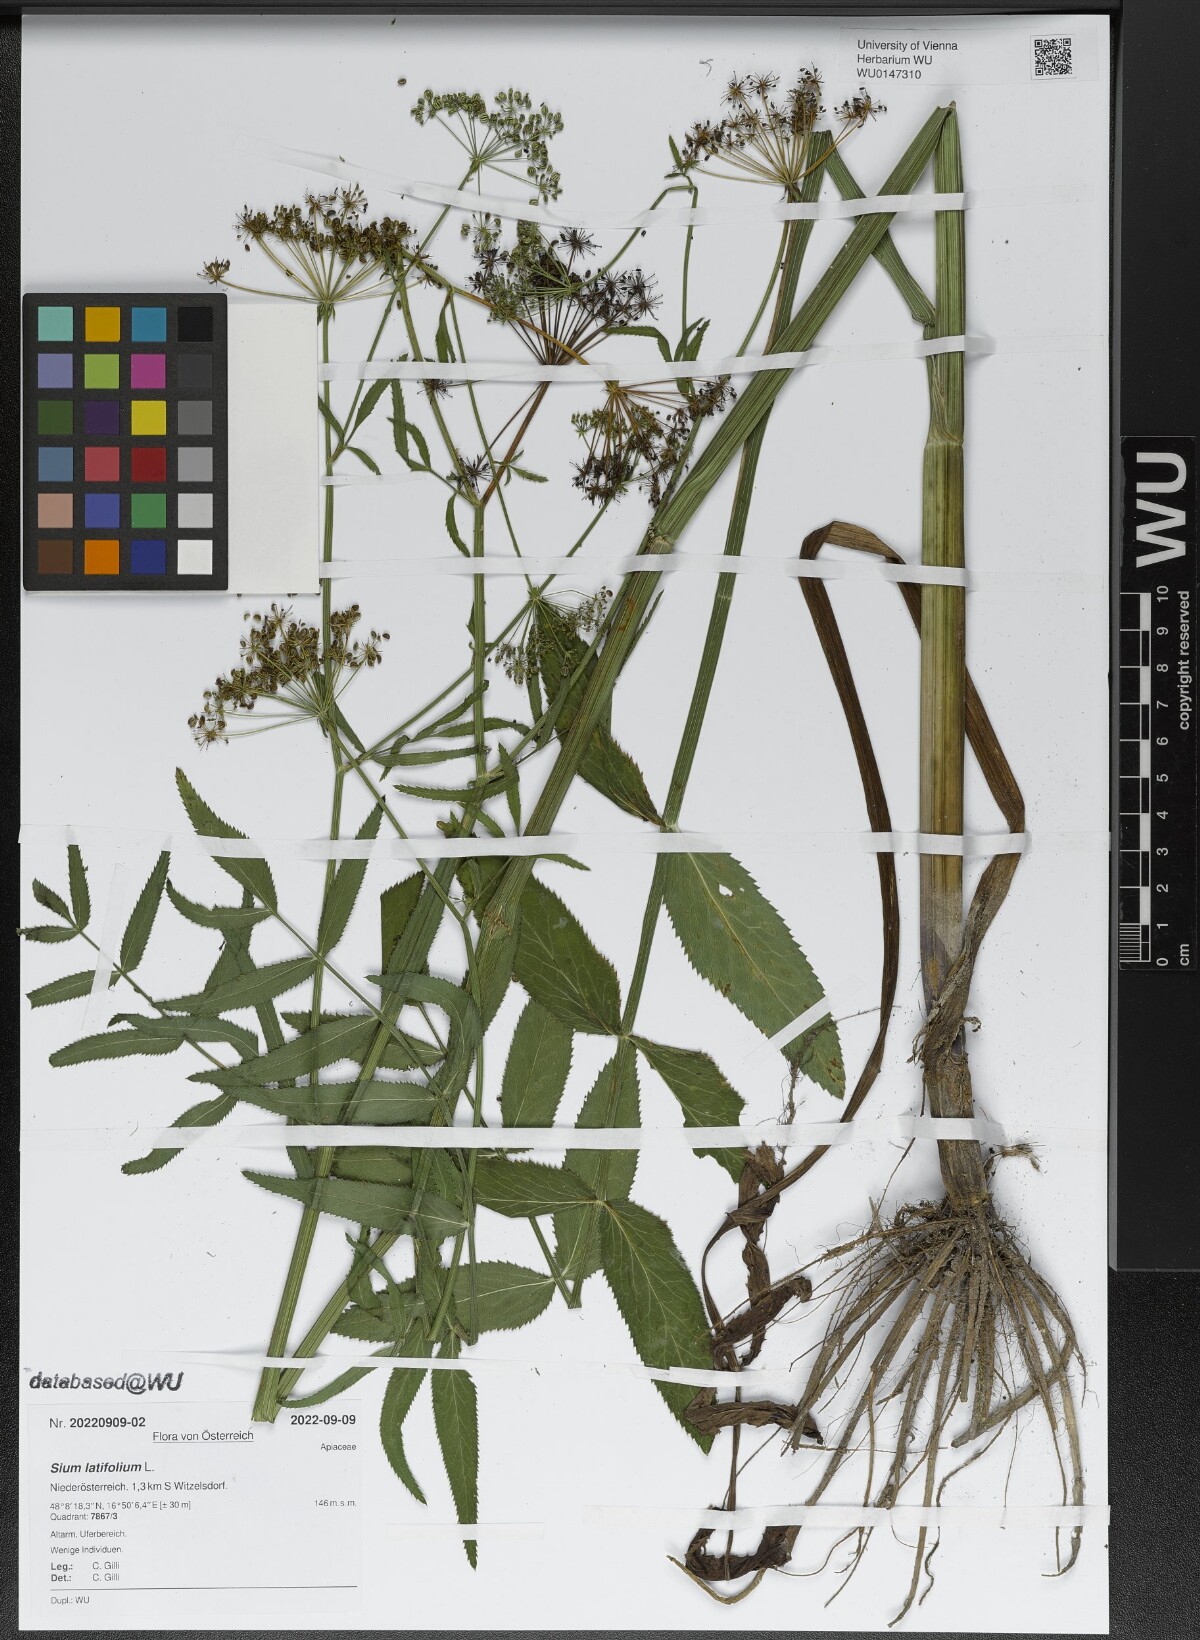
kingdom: Plantae
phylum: Tracheophyta
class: Magnoliopsida
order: Apiales
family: Apiaceae
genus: Sium
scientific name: Sium latifolium
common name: Greater water-parsnip
